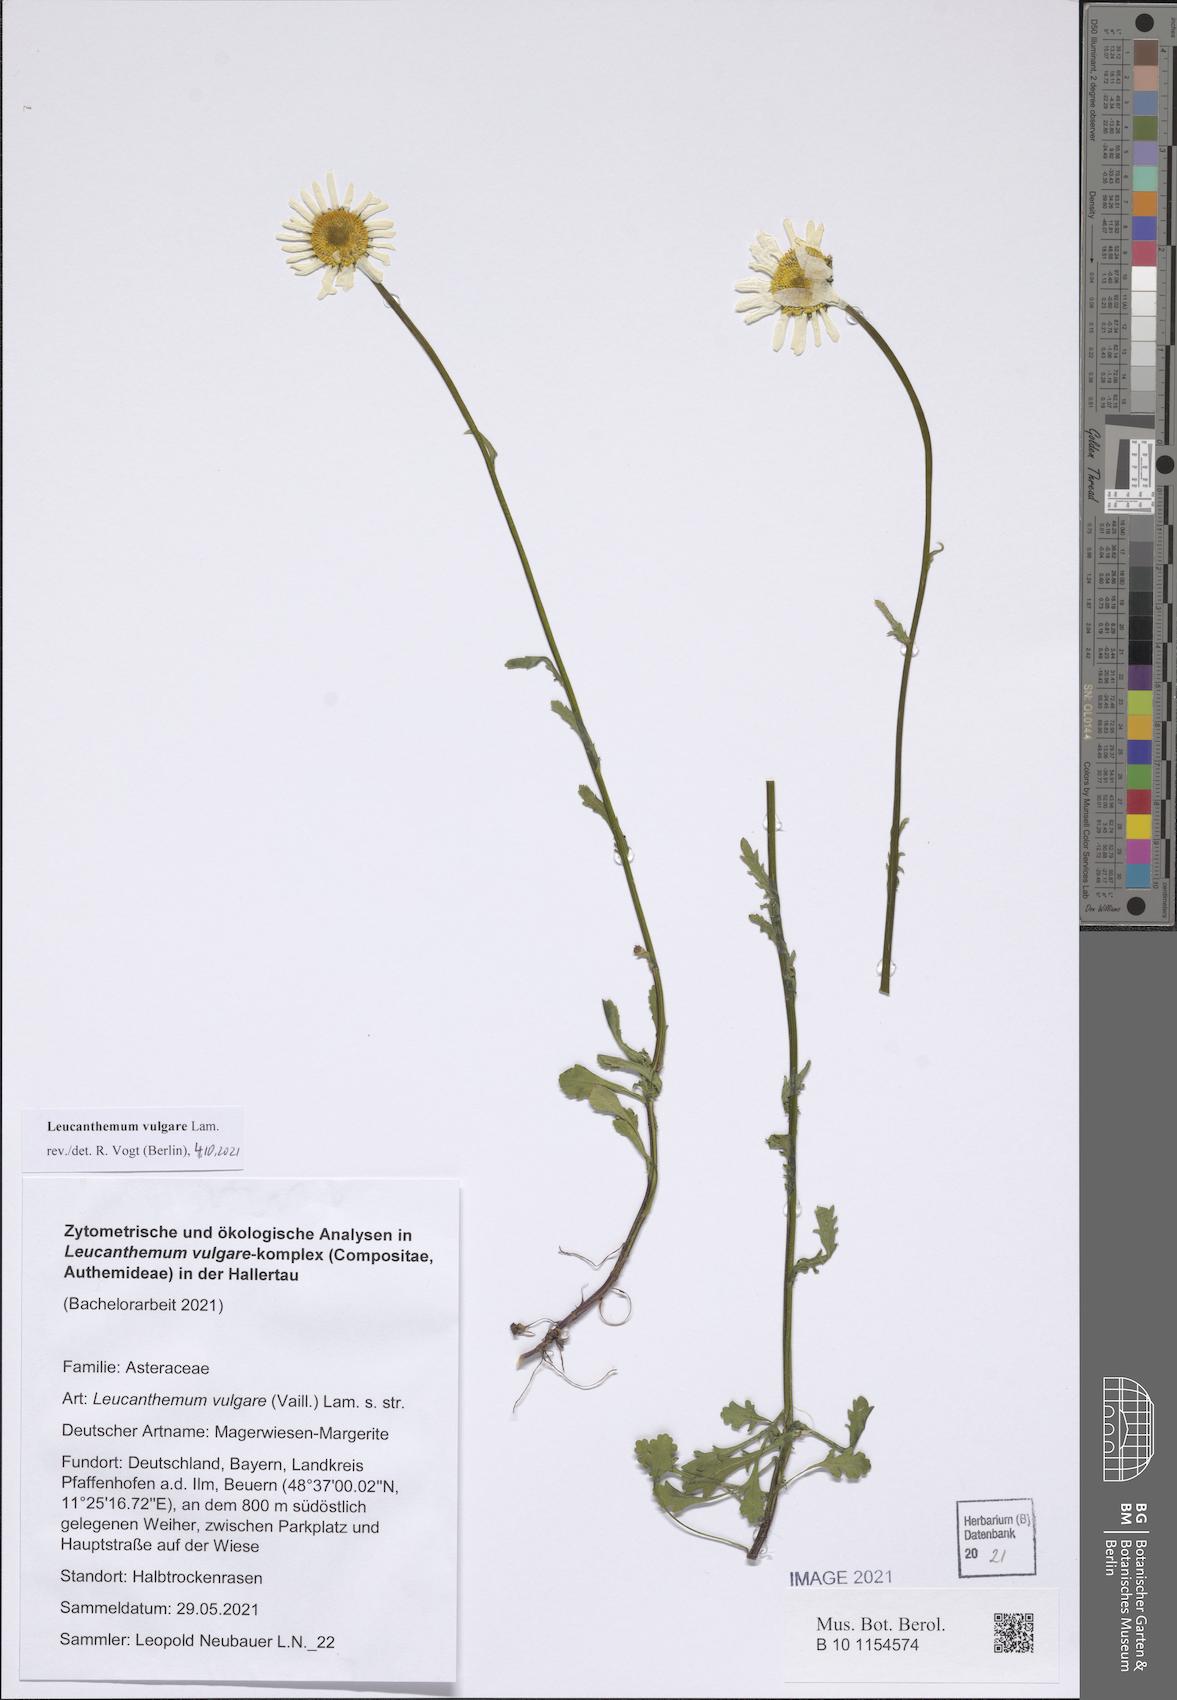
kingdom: Plantae
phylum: Tracheophyta
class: Magnoliopsida
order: Asterales
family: Asteraceae
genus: Leucanthemum
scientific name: Leucanthemum vulgare
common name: Oxeye daisy
